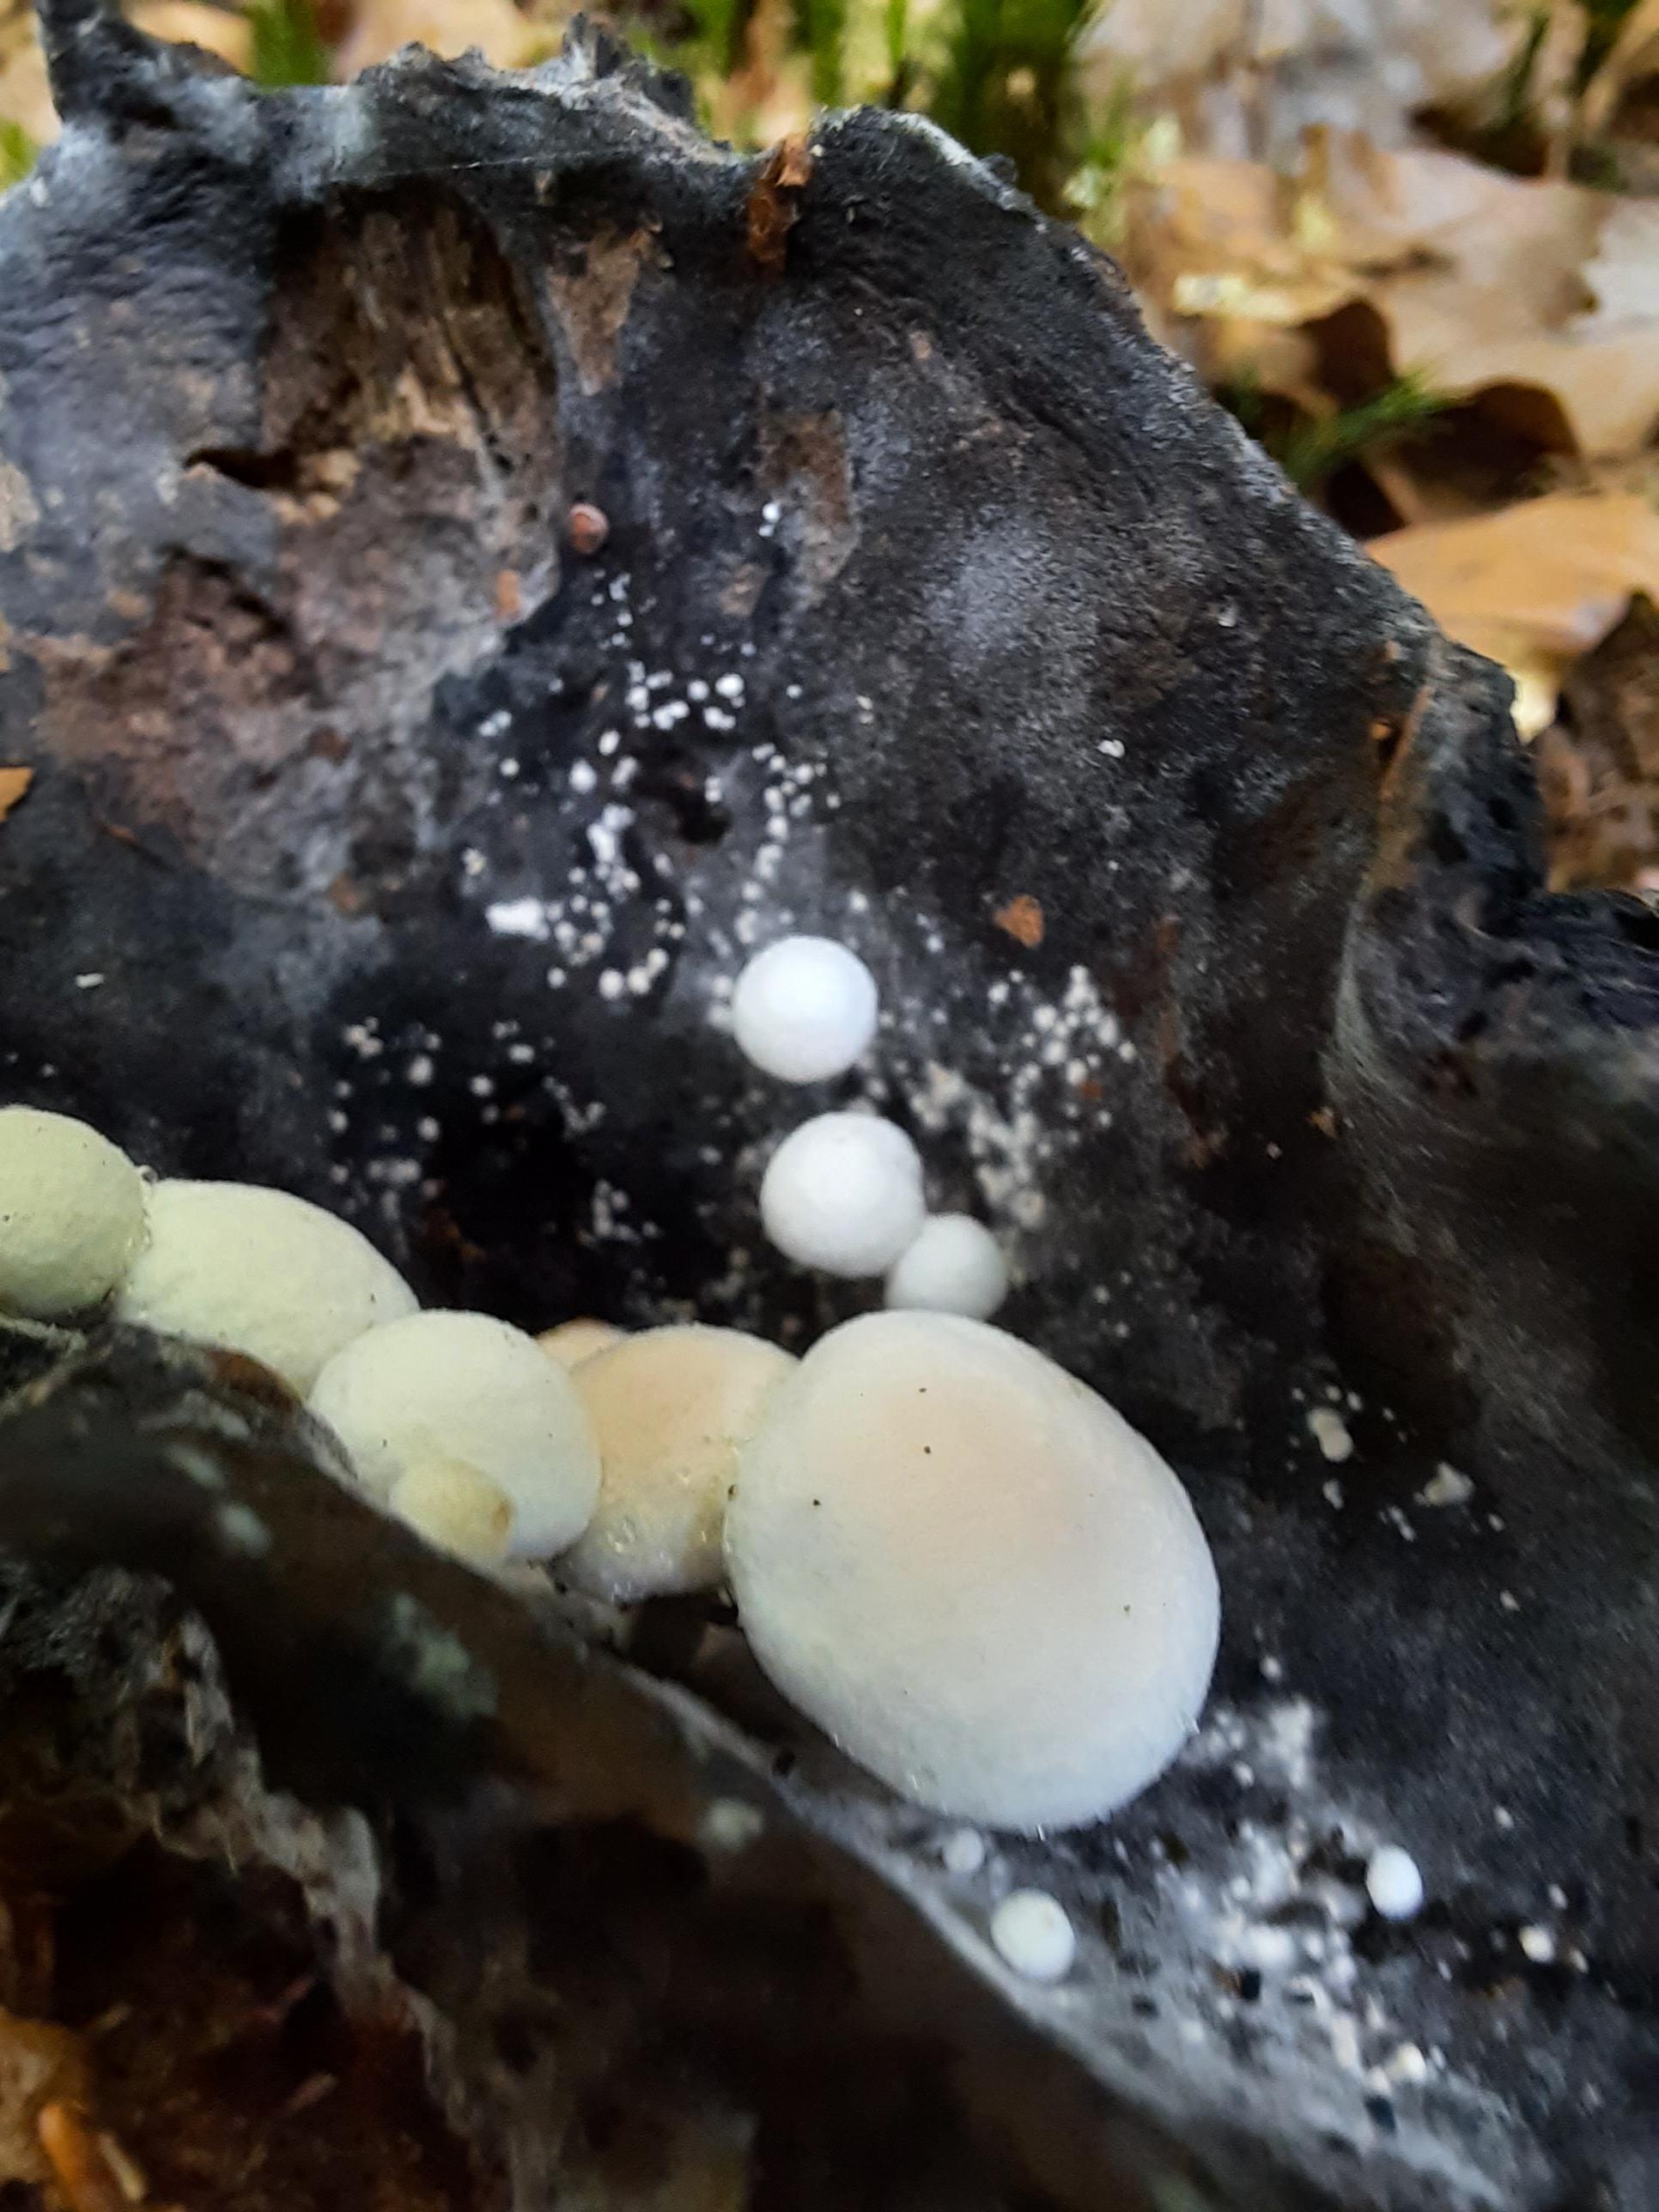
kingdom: Fungi
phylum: Basidiomycota
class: Agaricomycetes
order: Agaricales
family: Lyophyllaceae
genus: Asterophora
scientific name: Asterophora lycoperdoides
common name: brunpudret snyltehat
